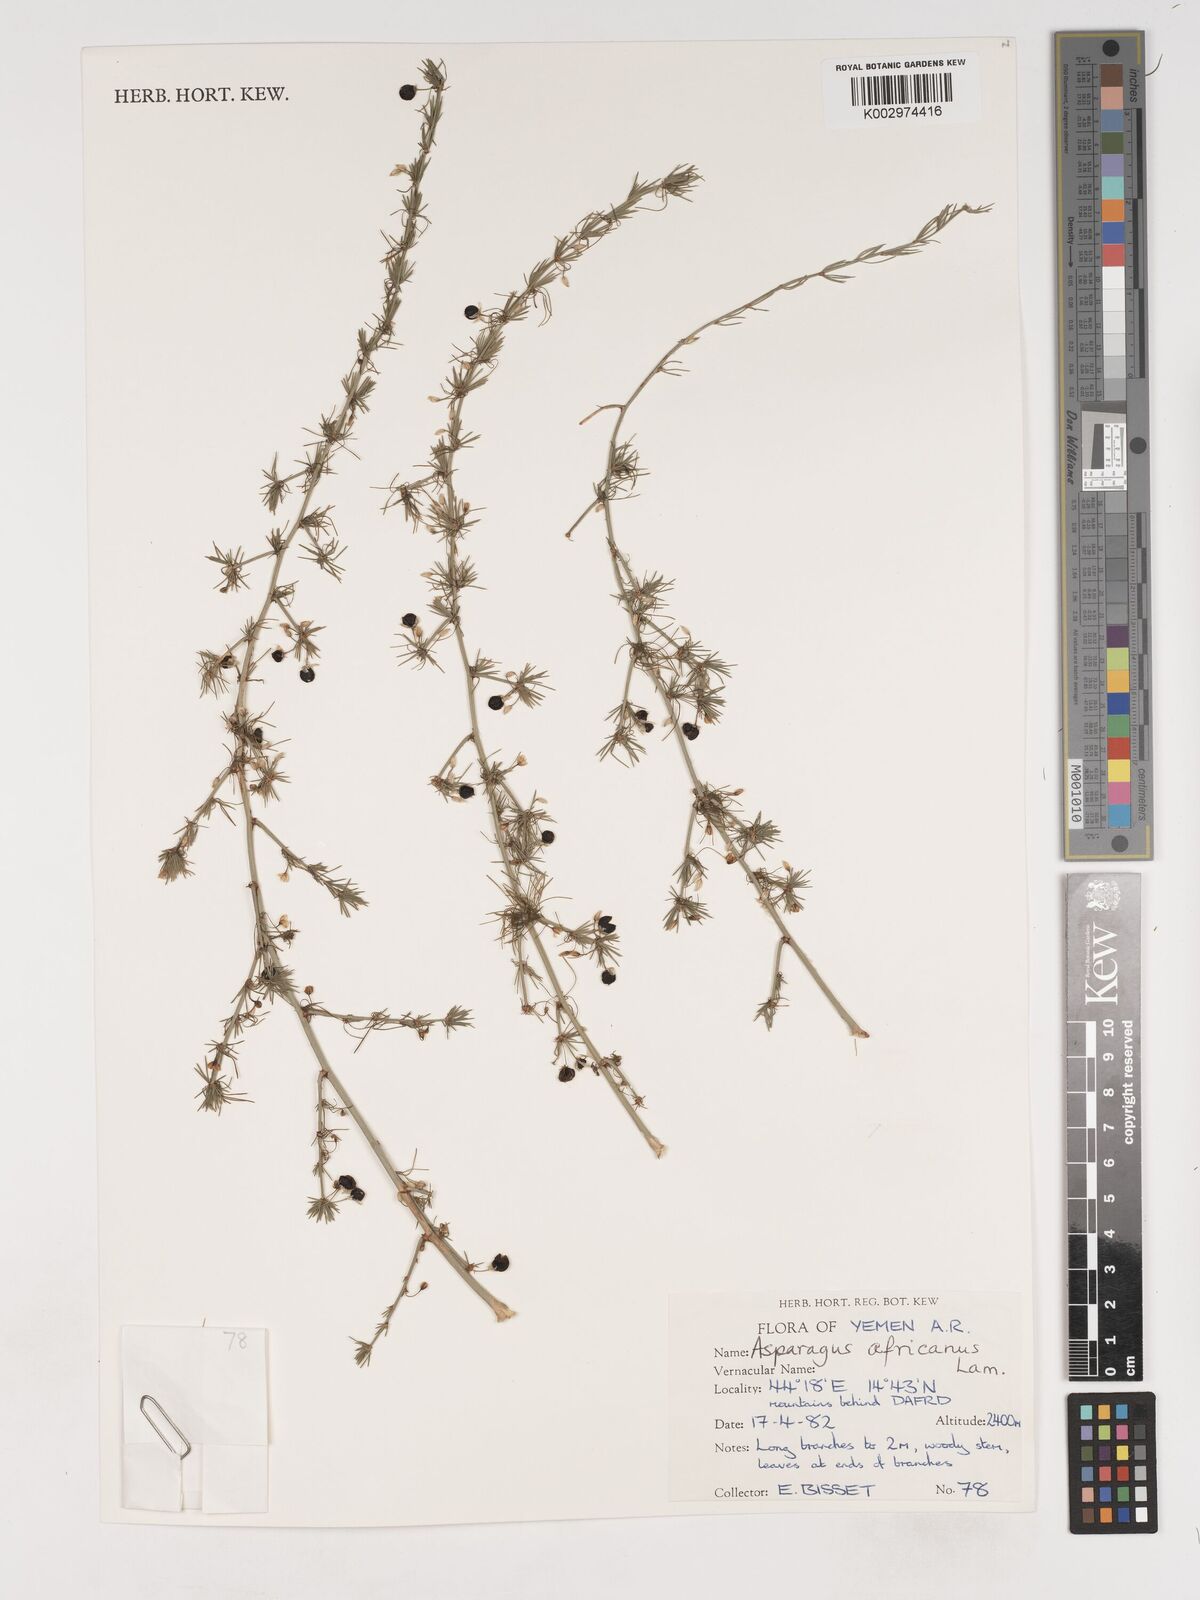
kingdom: Plantae
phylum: Tracheophyta
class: Liliopsida
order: Asparagales
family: Asparagaceae
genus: Asparagus
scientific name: Asparagus africanus
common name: Asparagus-fern
